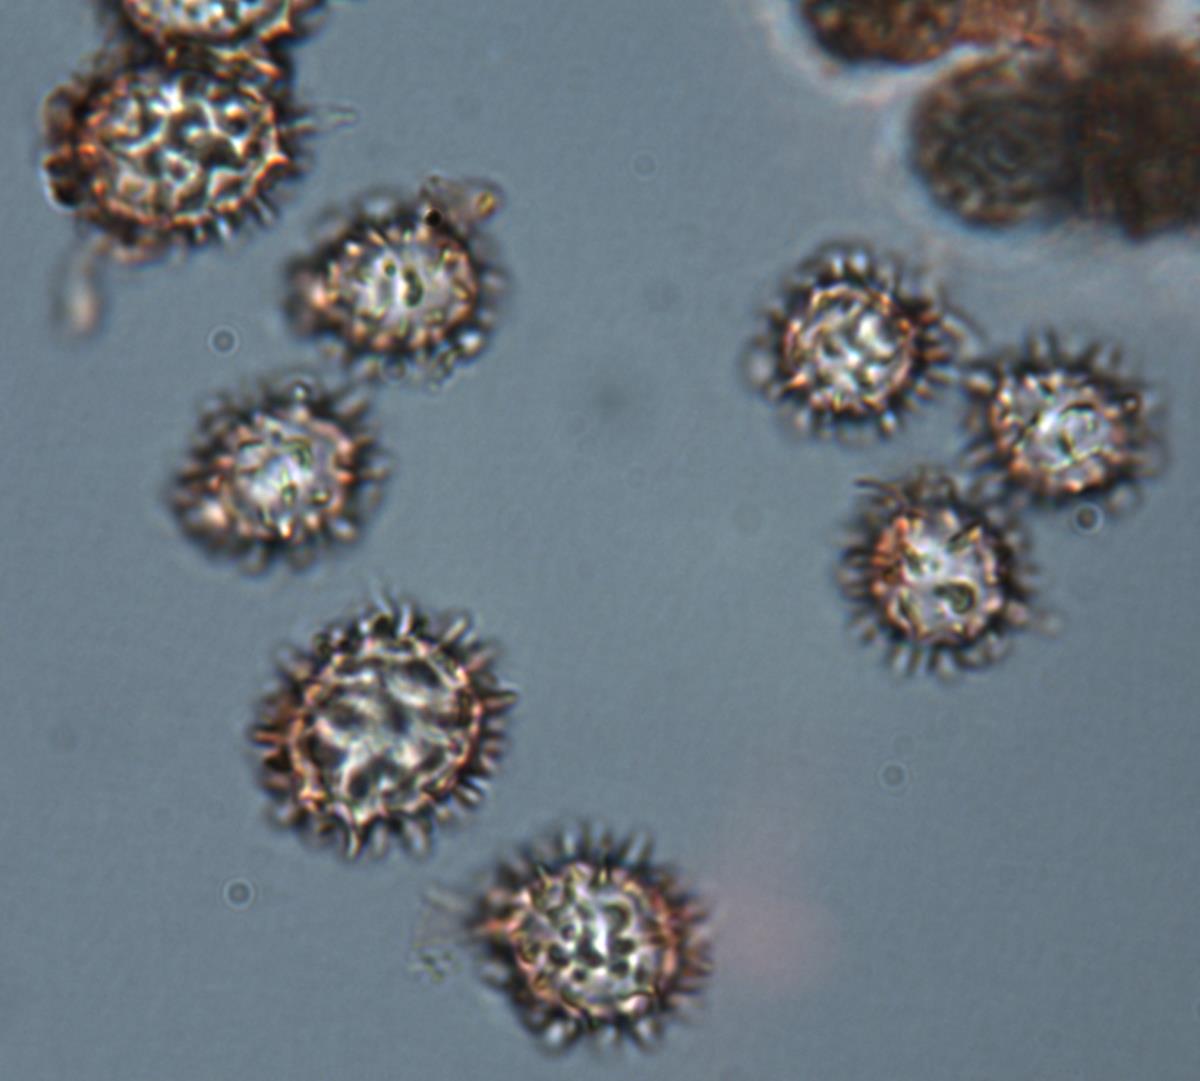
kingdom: Fungi
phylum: Basidiomycota
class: Agaricomycetes
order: Agaricales
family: Stephanosporaceae
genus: Stephanospora
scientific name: Stephanospora kanuka
